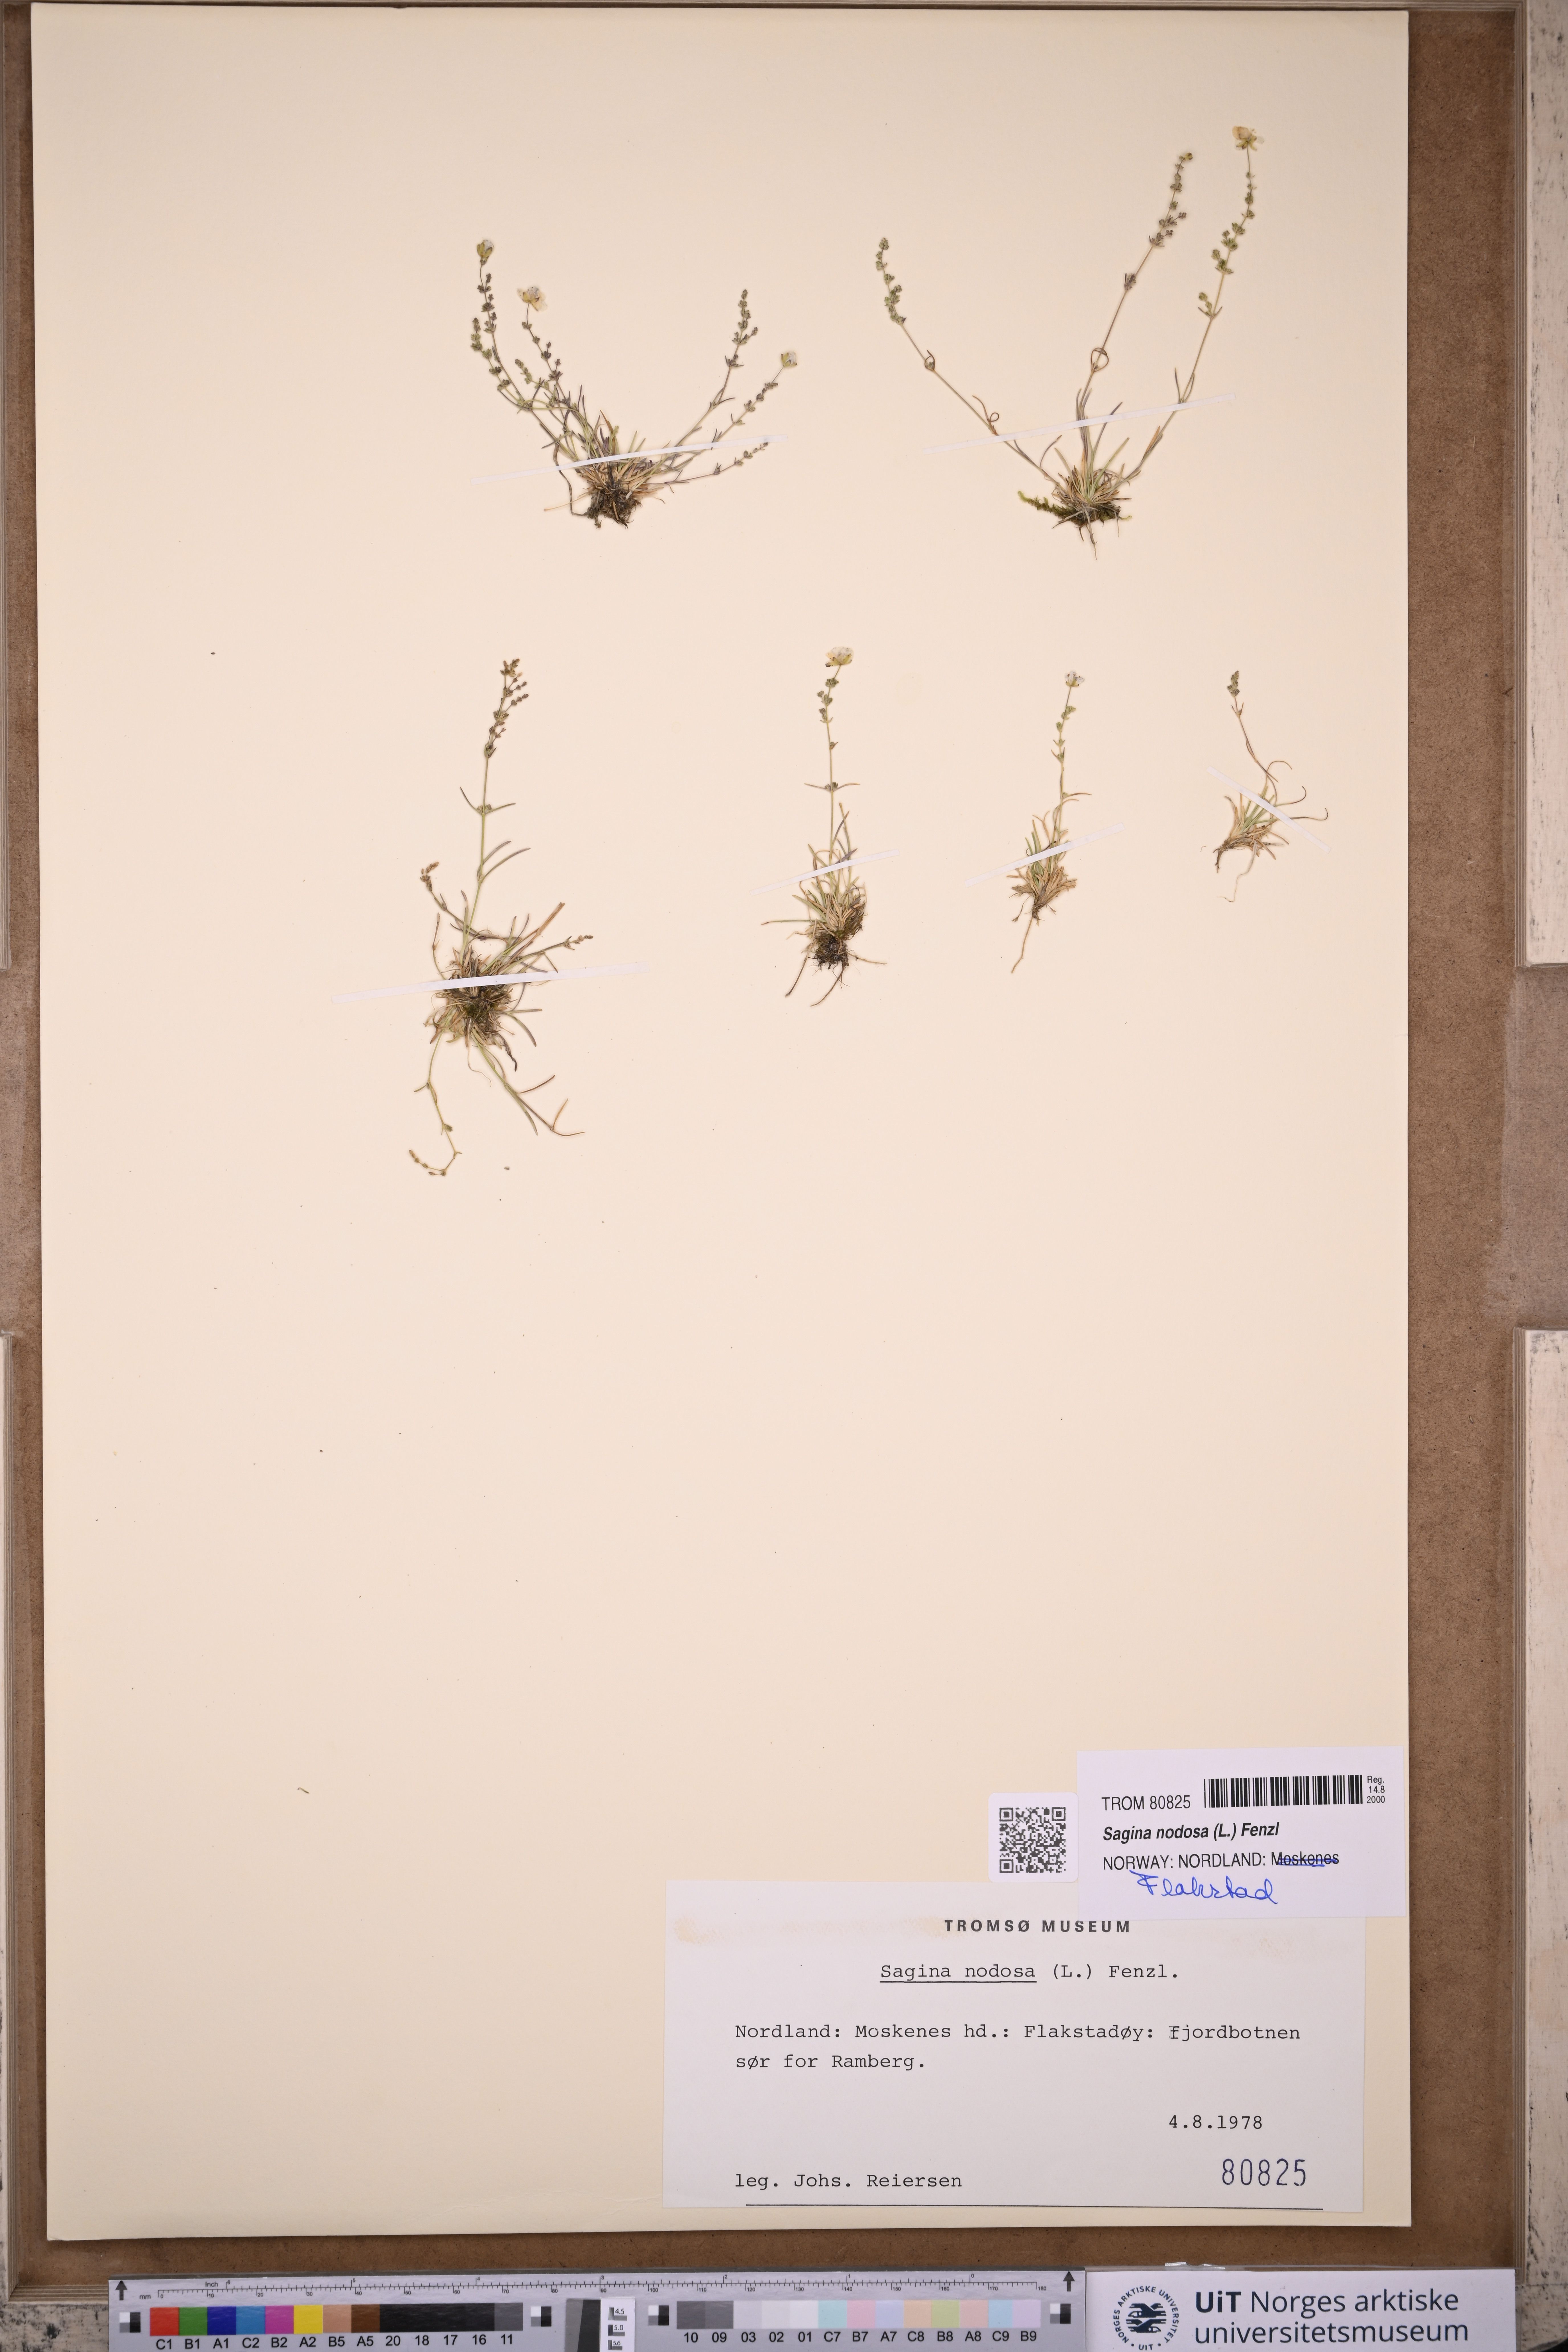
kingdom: Plantae
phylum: Tracheophyta
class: Magnoliopsida
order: Caryophyllales
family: Caryophyllaceae
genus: Sagina
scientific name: Sagina nodosa
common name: Knotted pearlwort
